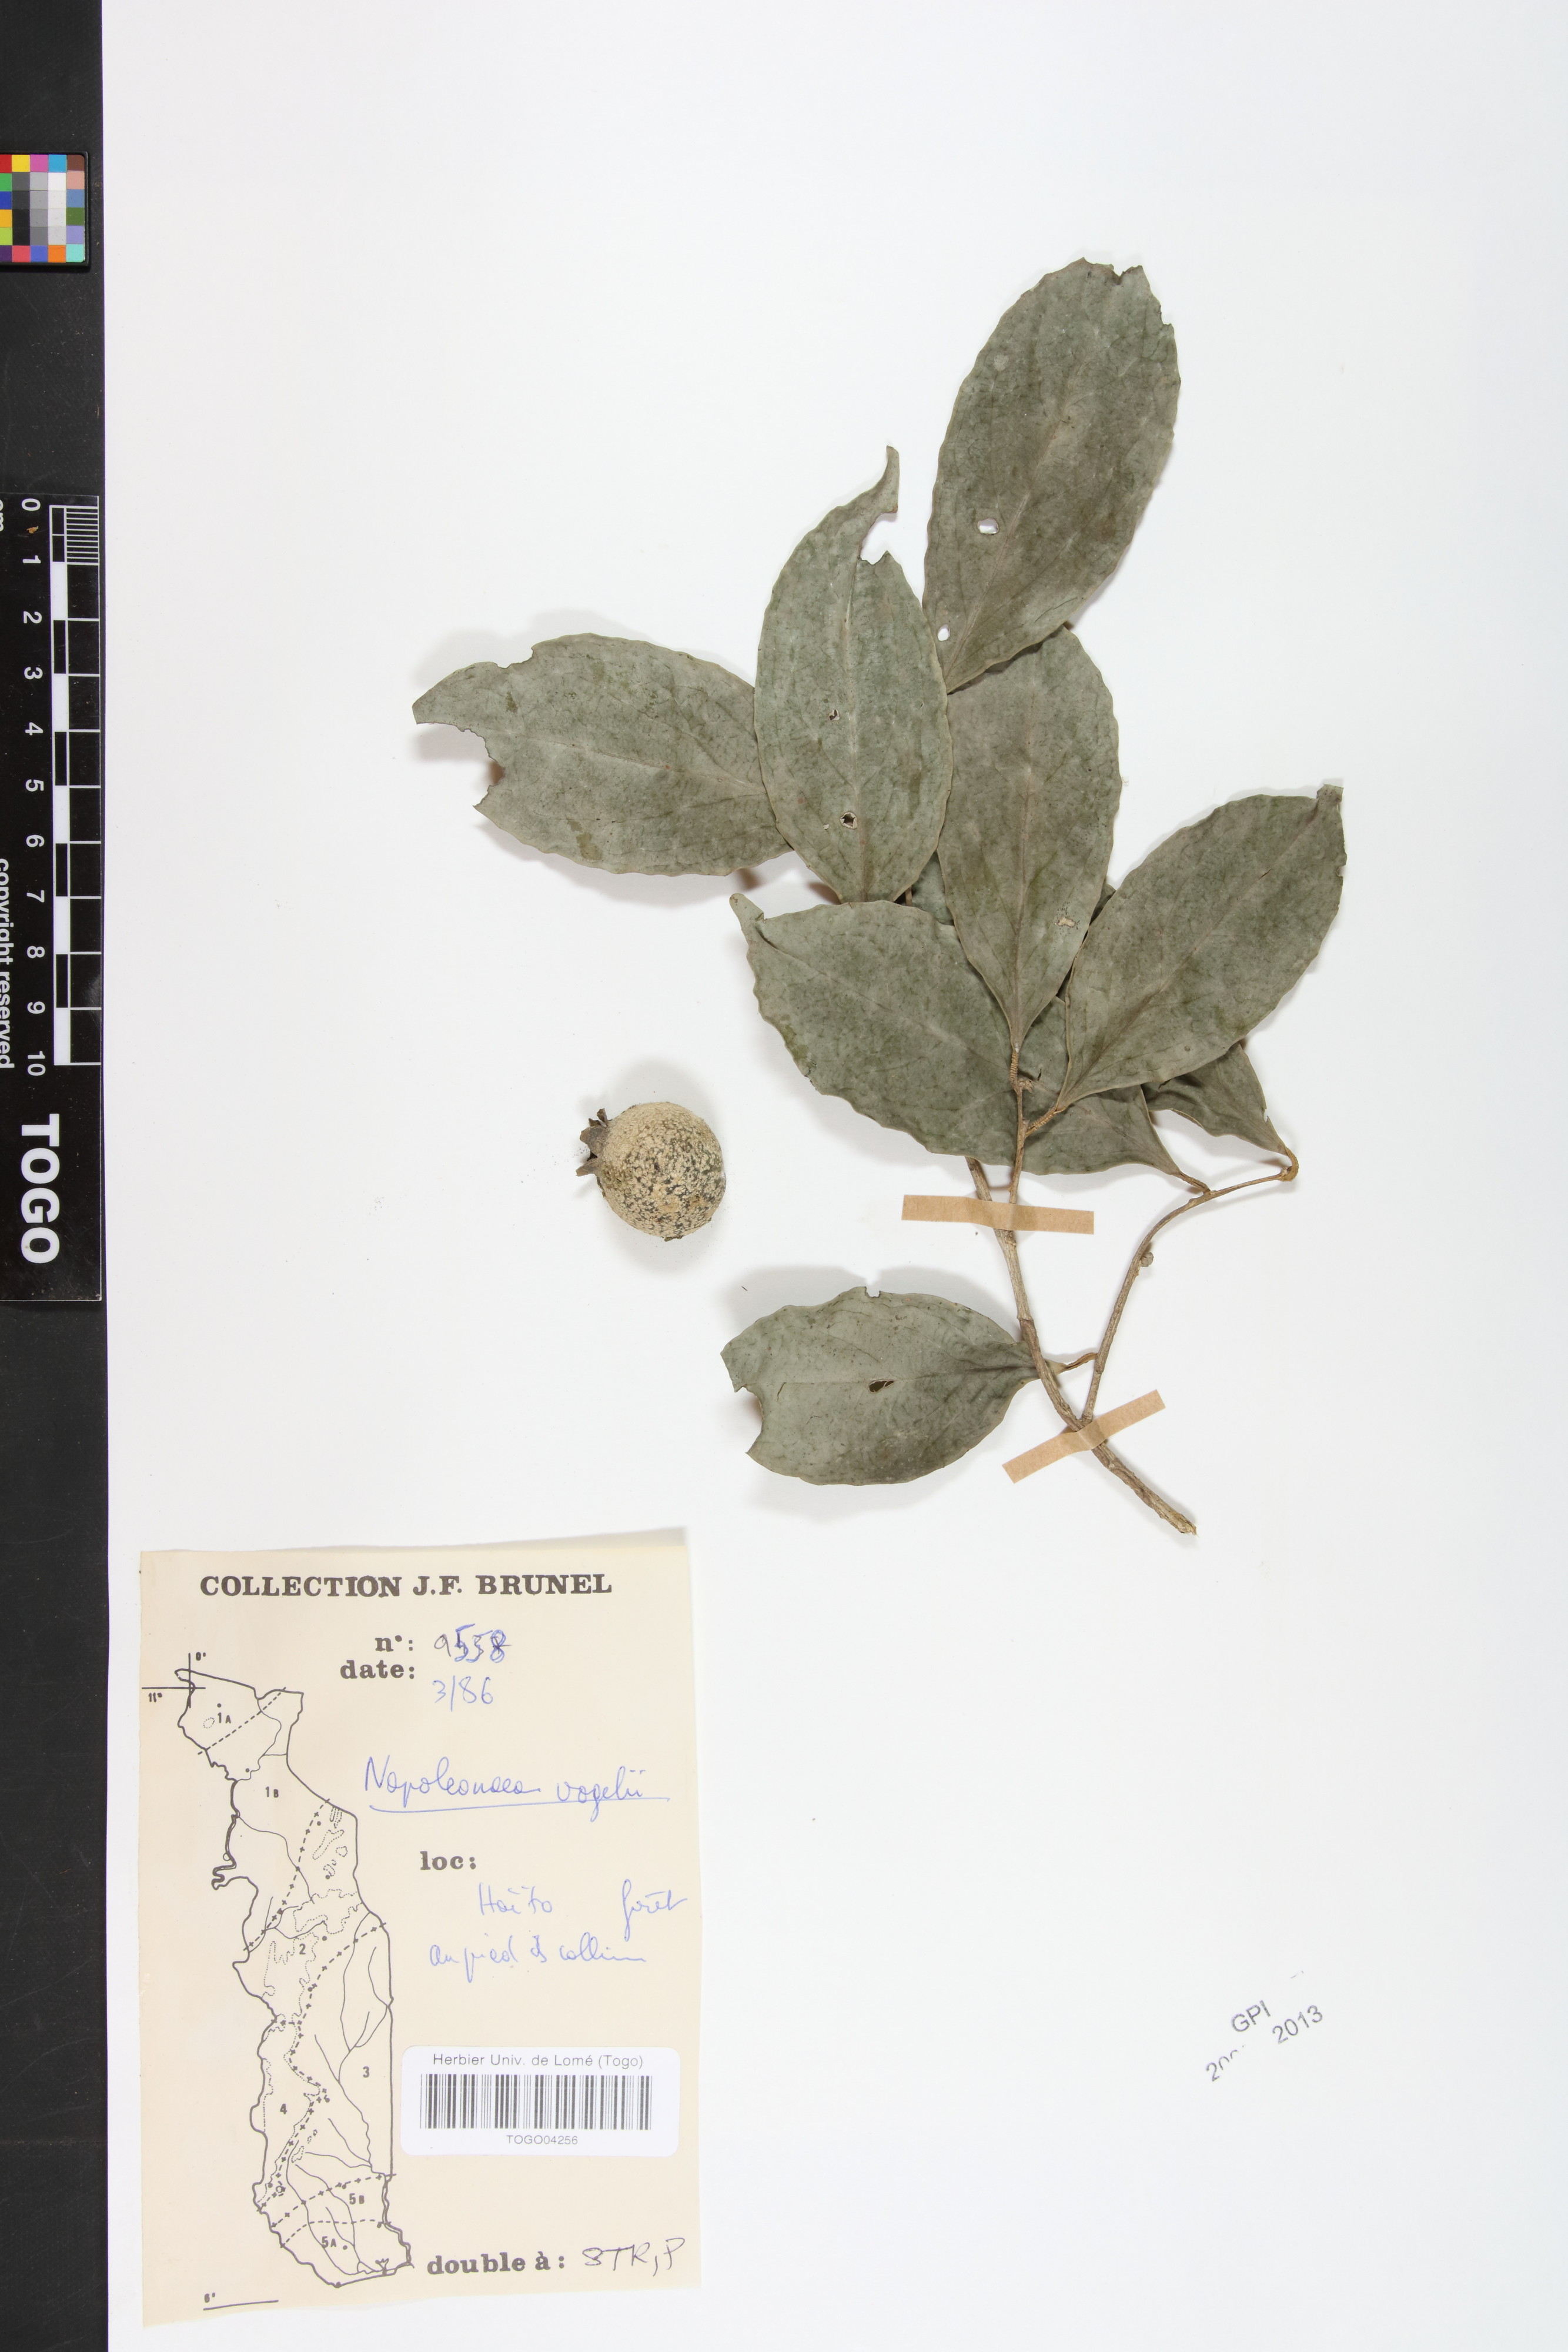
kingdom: Plantae
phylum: Tracheophyta
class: Magnoliopsida
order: Ericales
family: Lecythidaceae
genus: Napoleonaea
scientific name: Napoleonaea vogelii
